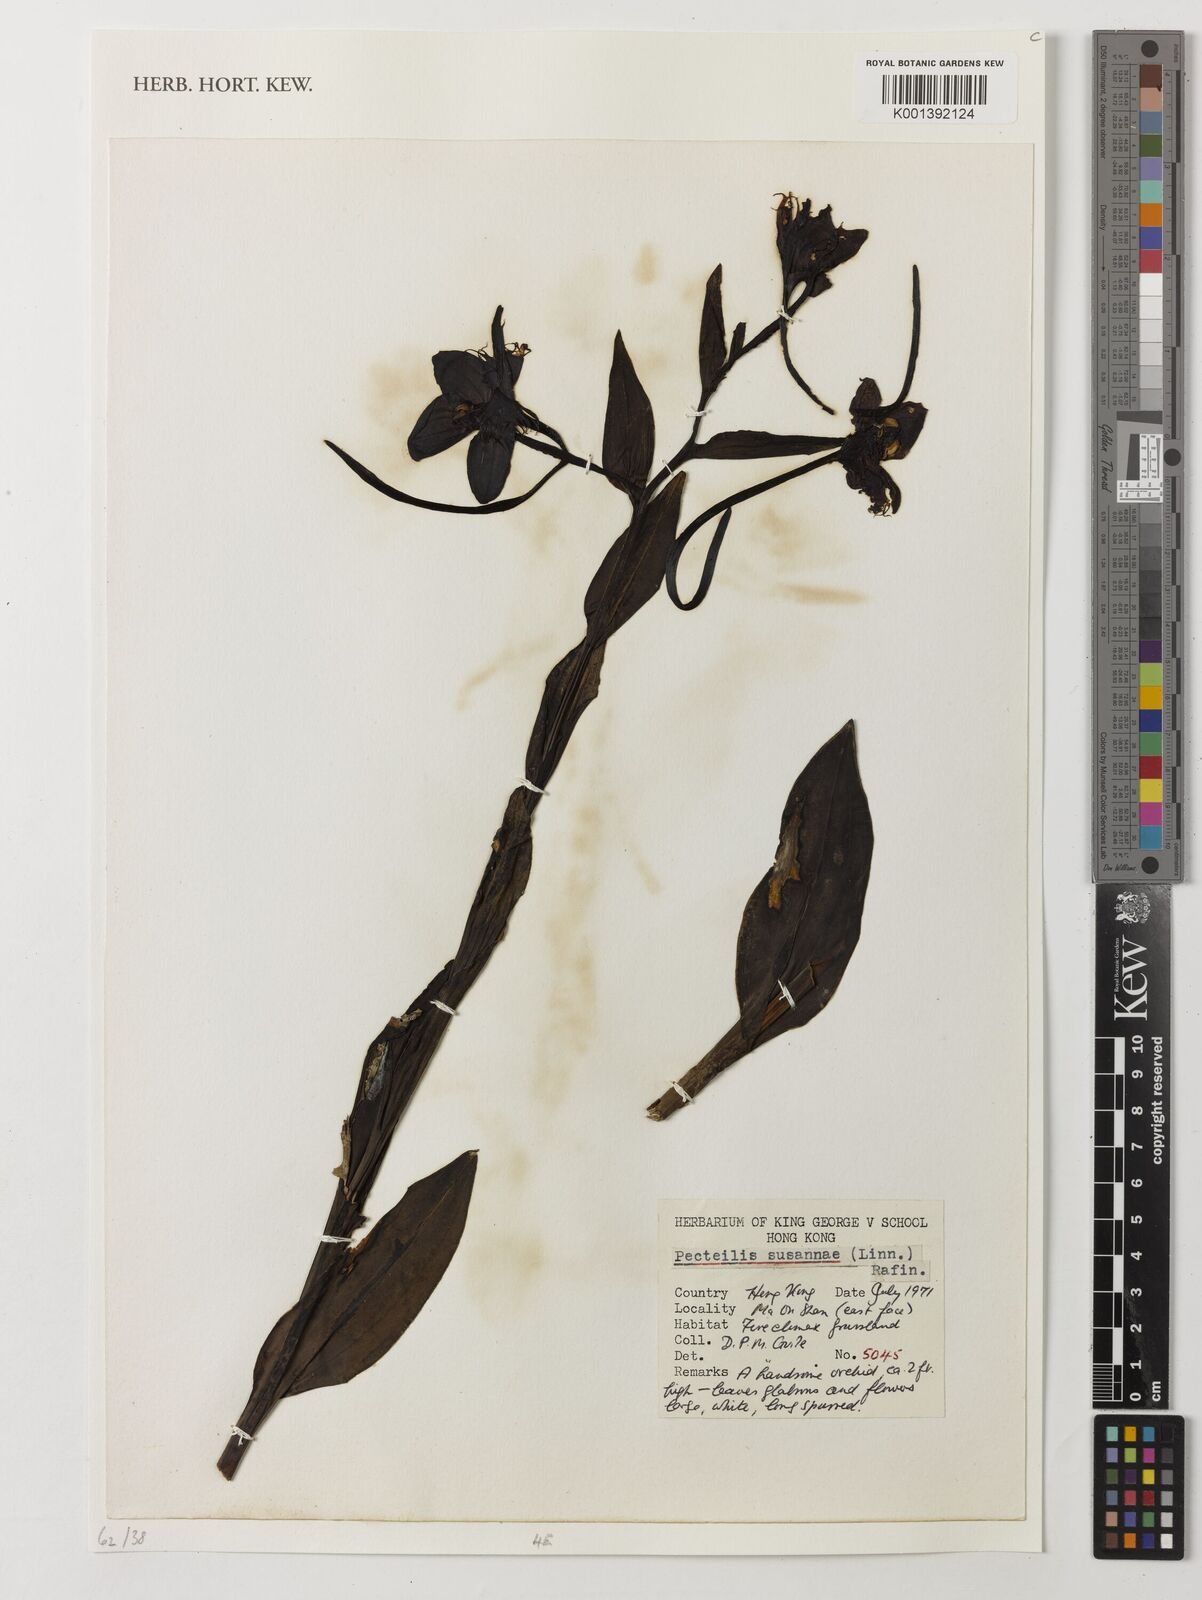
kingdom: Plantae
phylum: Tracheophyta
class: Liliopsida
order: Asparagales
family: Orchidaceae
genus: Pecteilis
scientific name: Pecteilis
